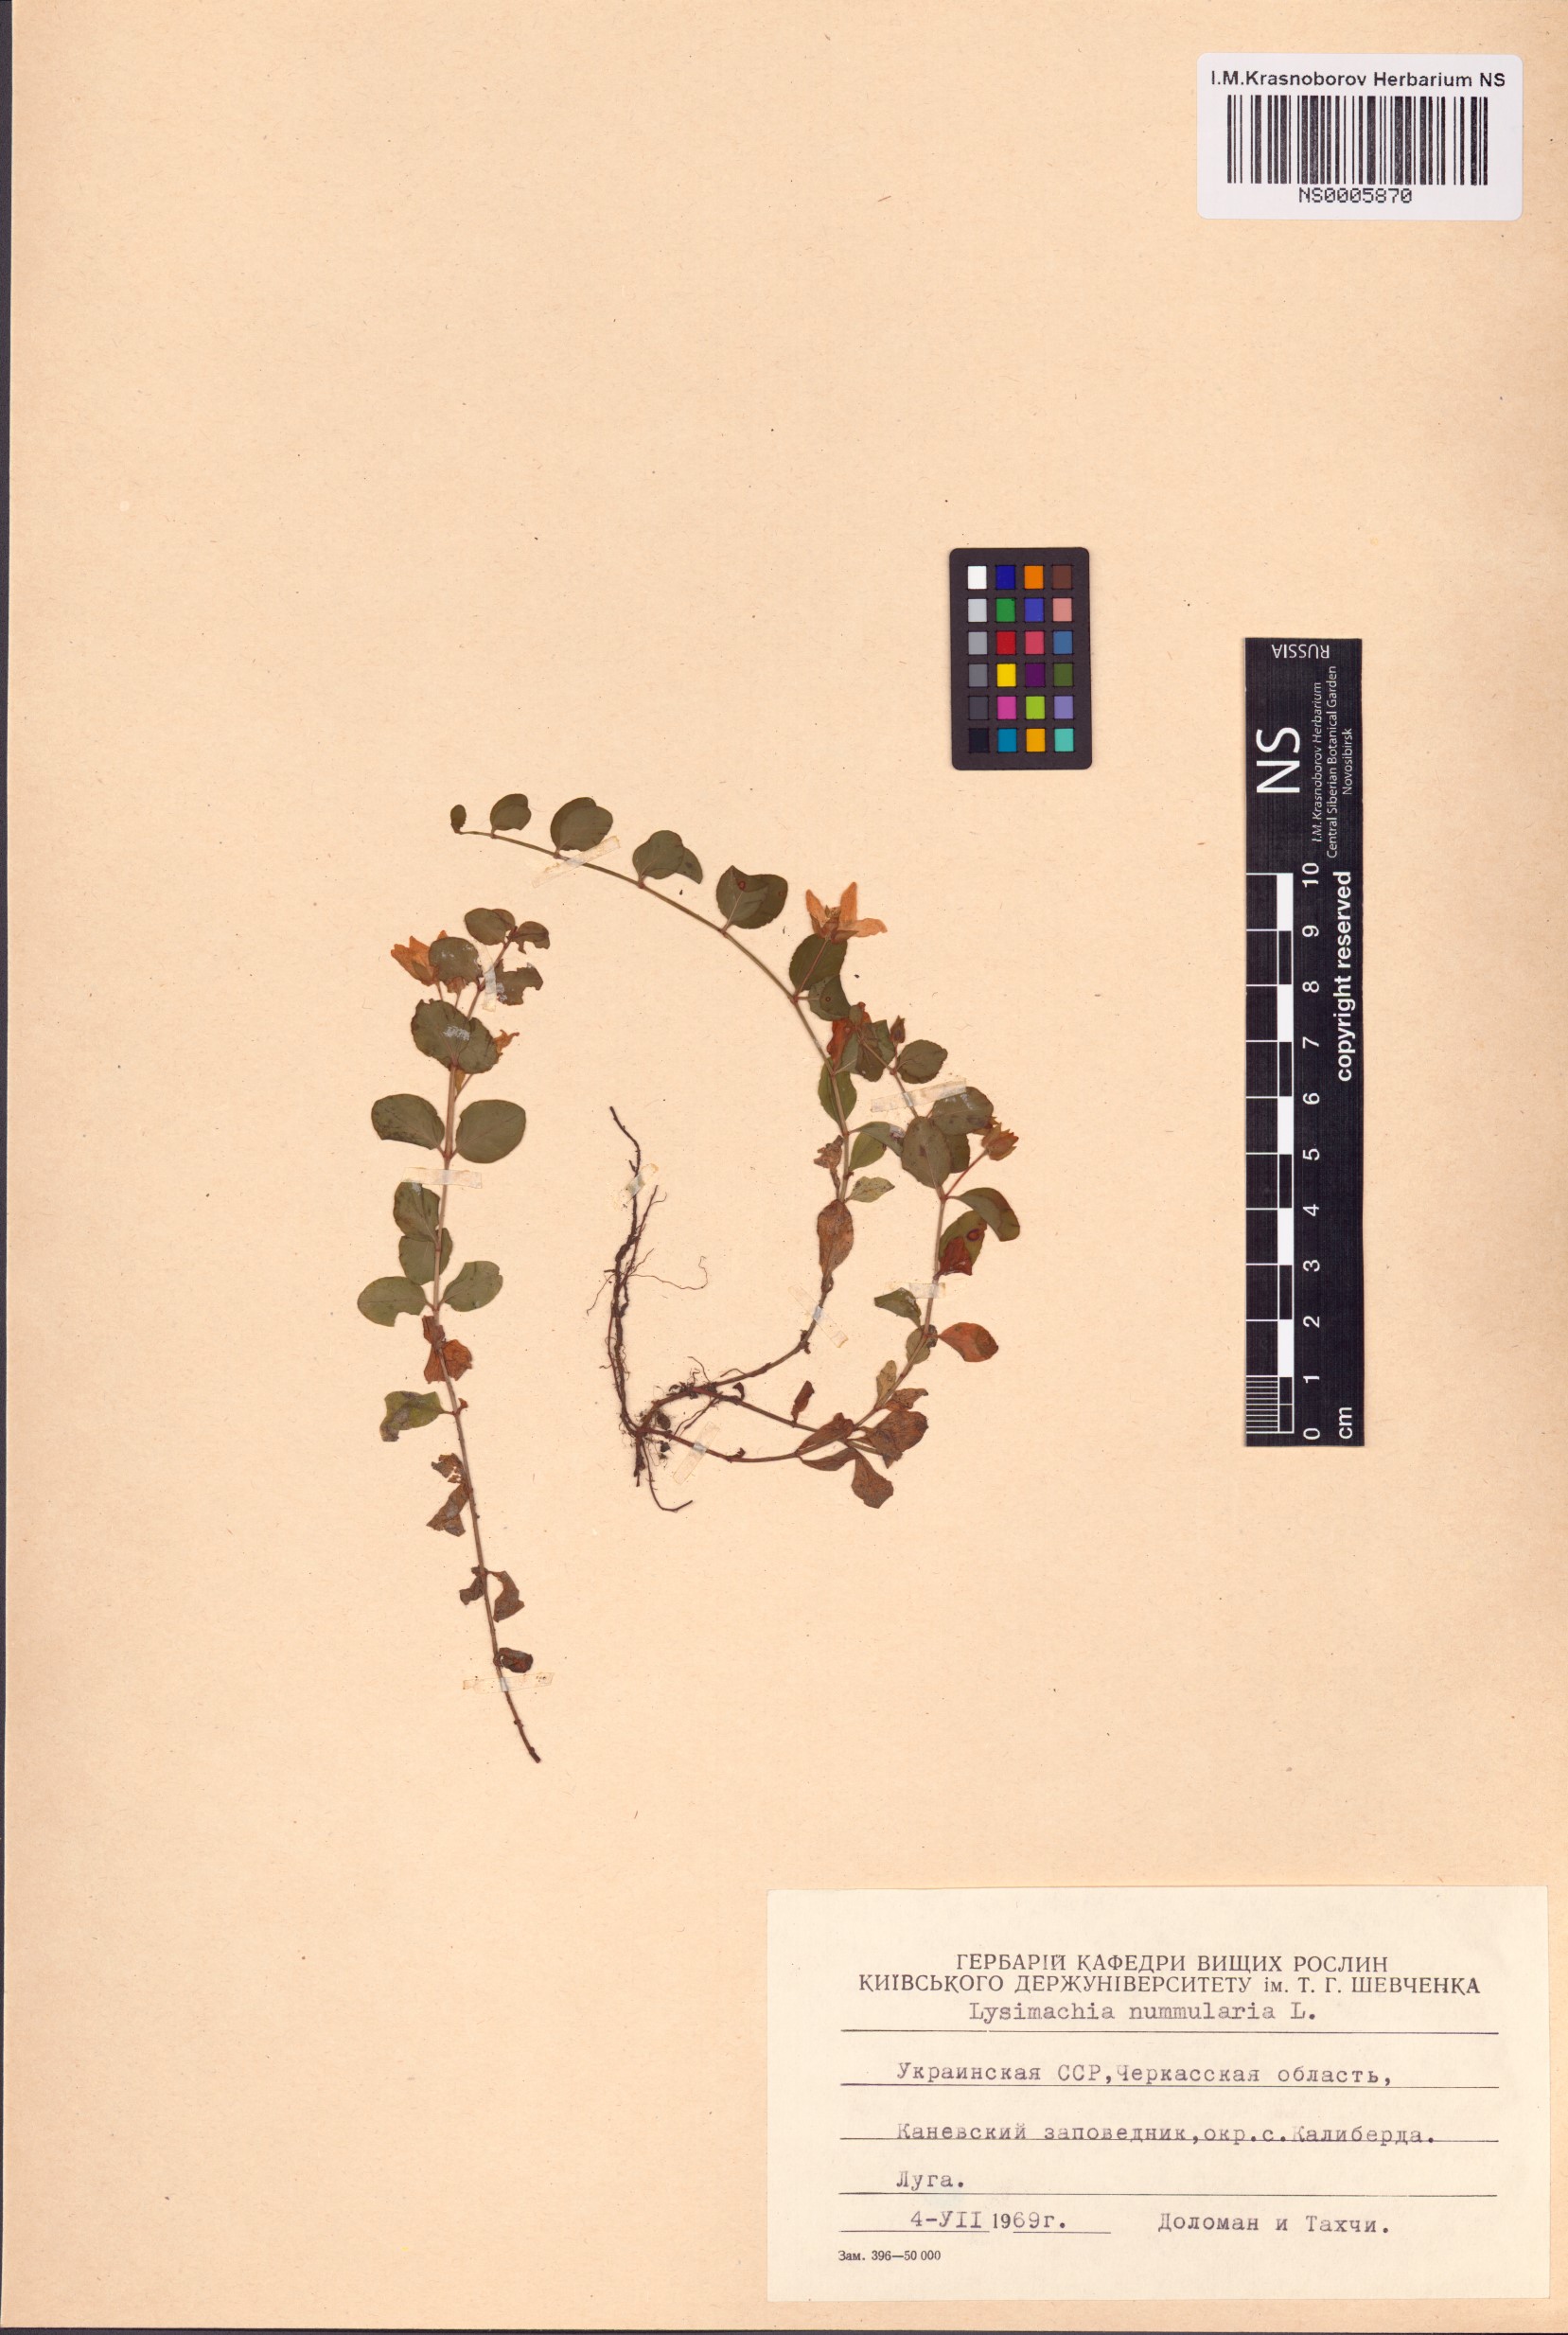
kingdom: Plantae
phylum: Tracheophyta
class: Magnoliopsida
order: Ericales
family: Primulaceae
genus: Lysimachia
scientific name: Lysimachia nummularia
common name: Moneywort
